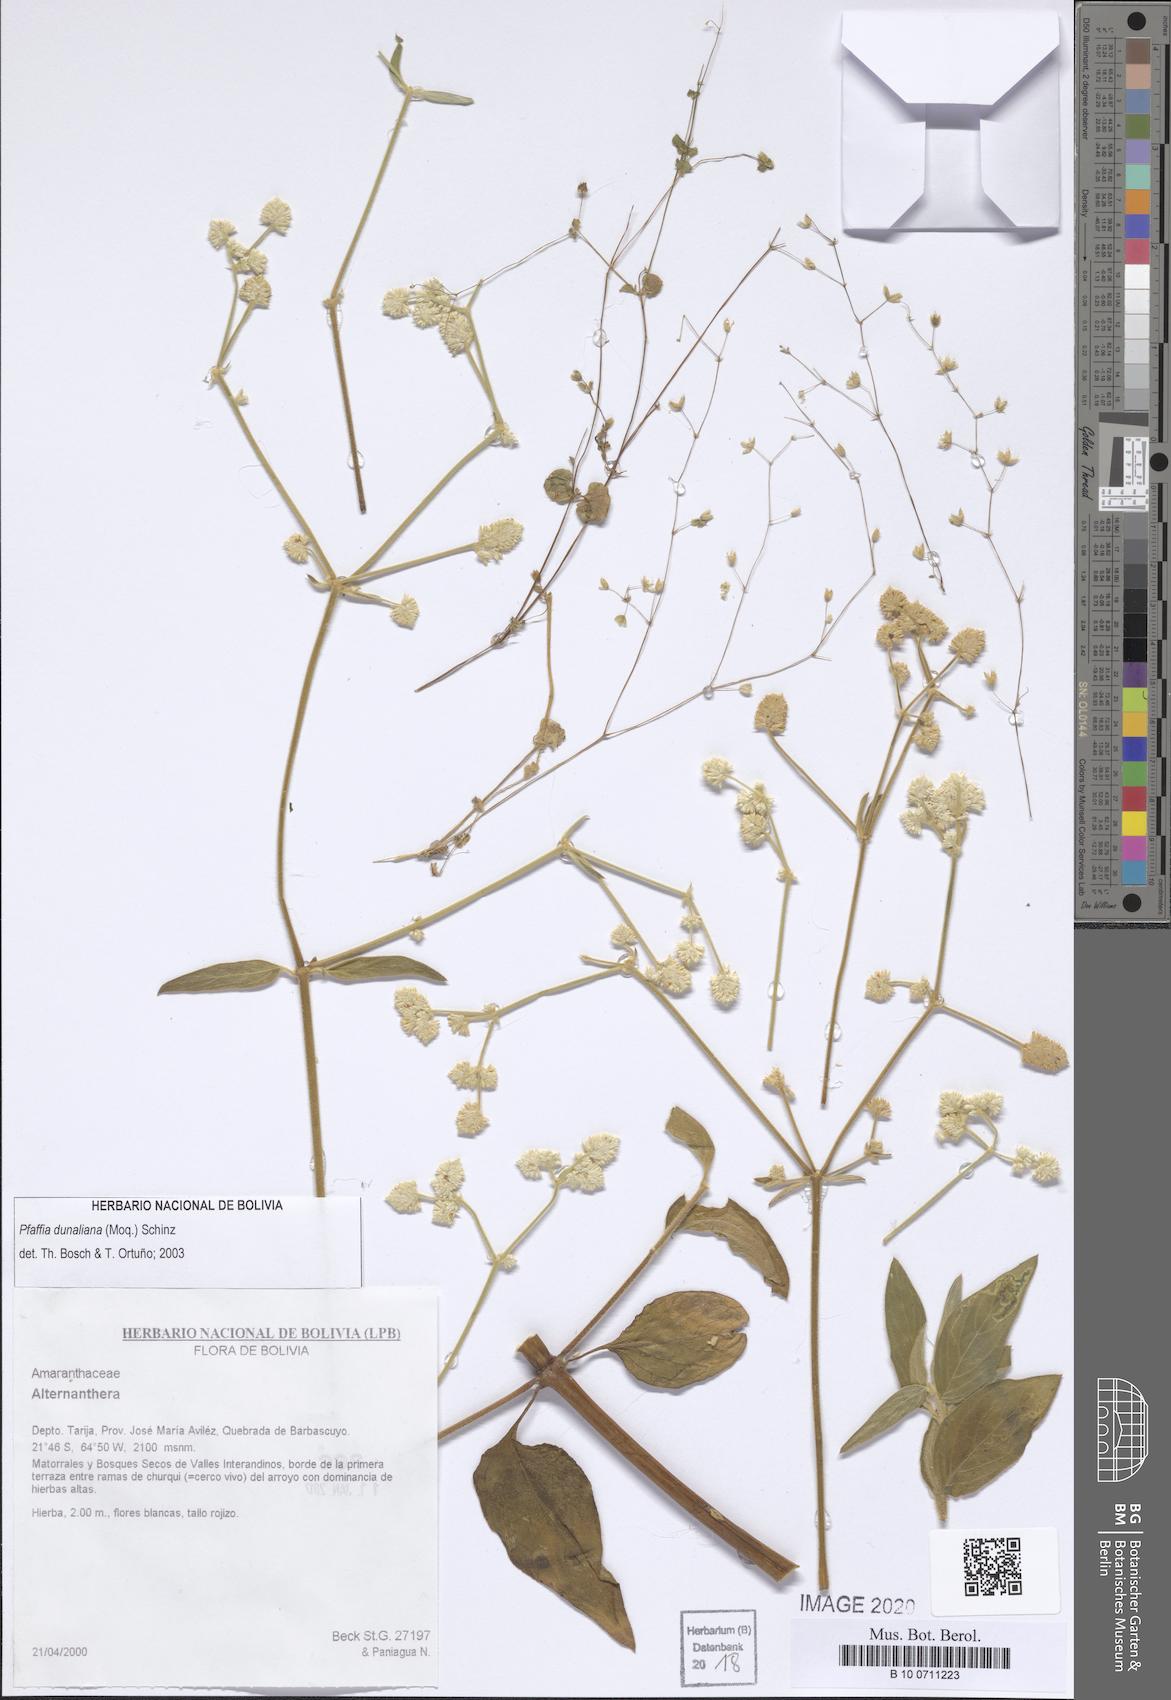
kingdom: Plantae
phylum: Tracheophyta
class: Magnoliopsida
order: Caryophyllales
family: Amaranthaceae
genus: Pfaffia
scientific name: Pfaffia glomerata
